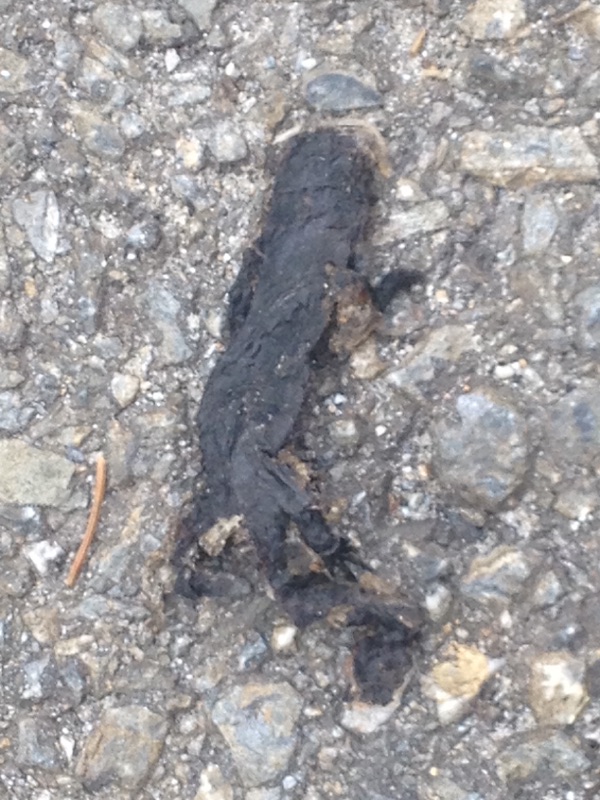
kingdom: Animalia
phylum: Chordata
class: Amphibia
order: Caudata
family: Salamandridae
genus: Salamandra
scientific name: Salamandra atra
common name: Alpine salamander
